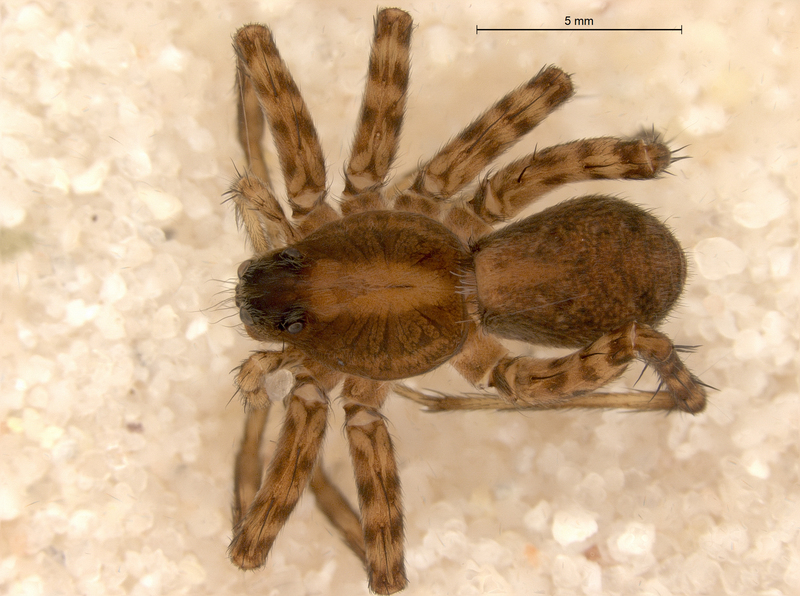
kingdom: Animalia
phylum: Arthropoda
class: Arachnida
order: Araneae
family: Lycosidae
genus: Pardosa
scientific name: Pardosa lugubris
